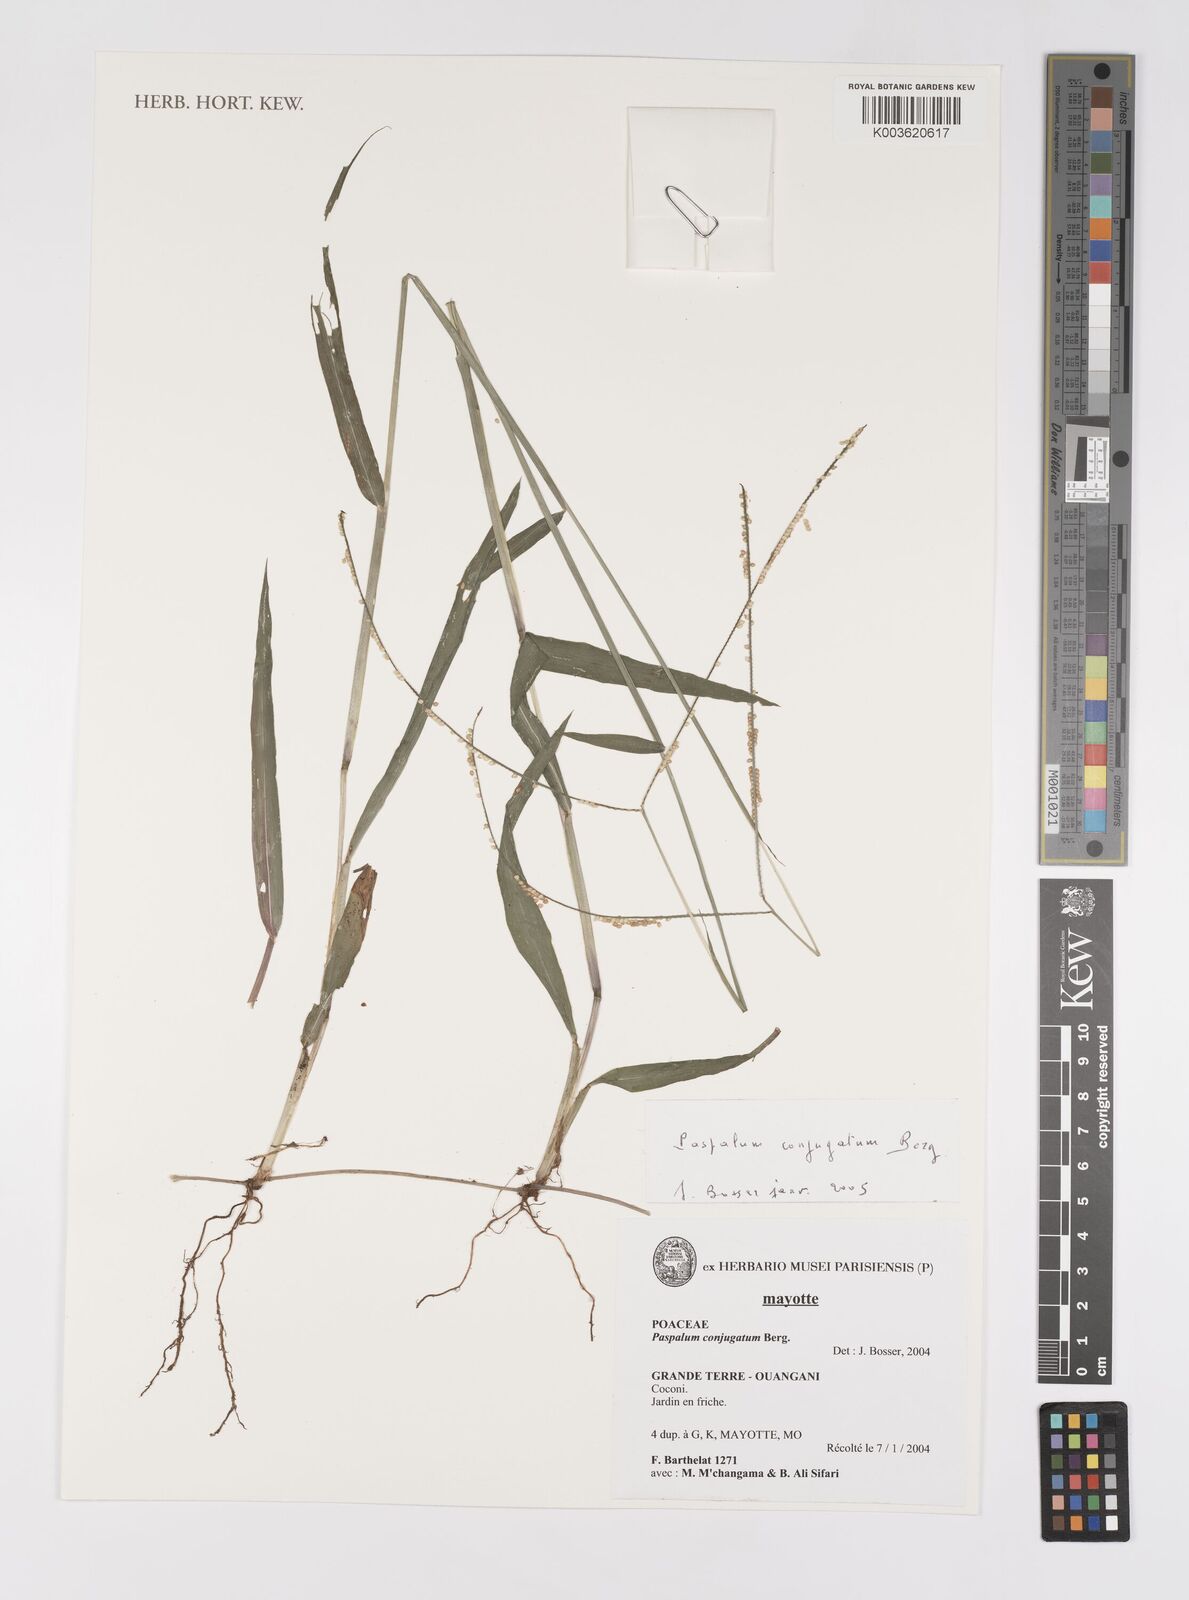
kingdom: Plantae
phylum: Tracheophyta
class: Liliopsida
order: Poales
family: Poaceae
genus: Paspalum
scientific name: Paspalum conjugatum
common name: Hilograss
